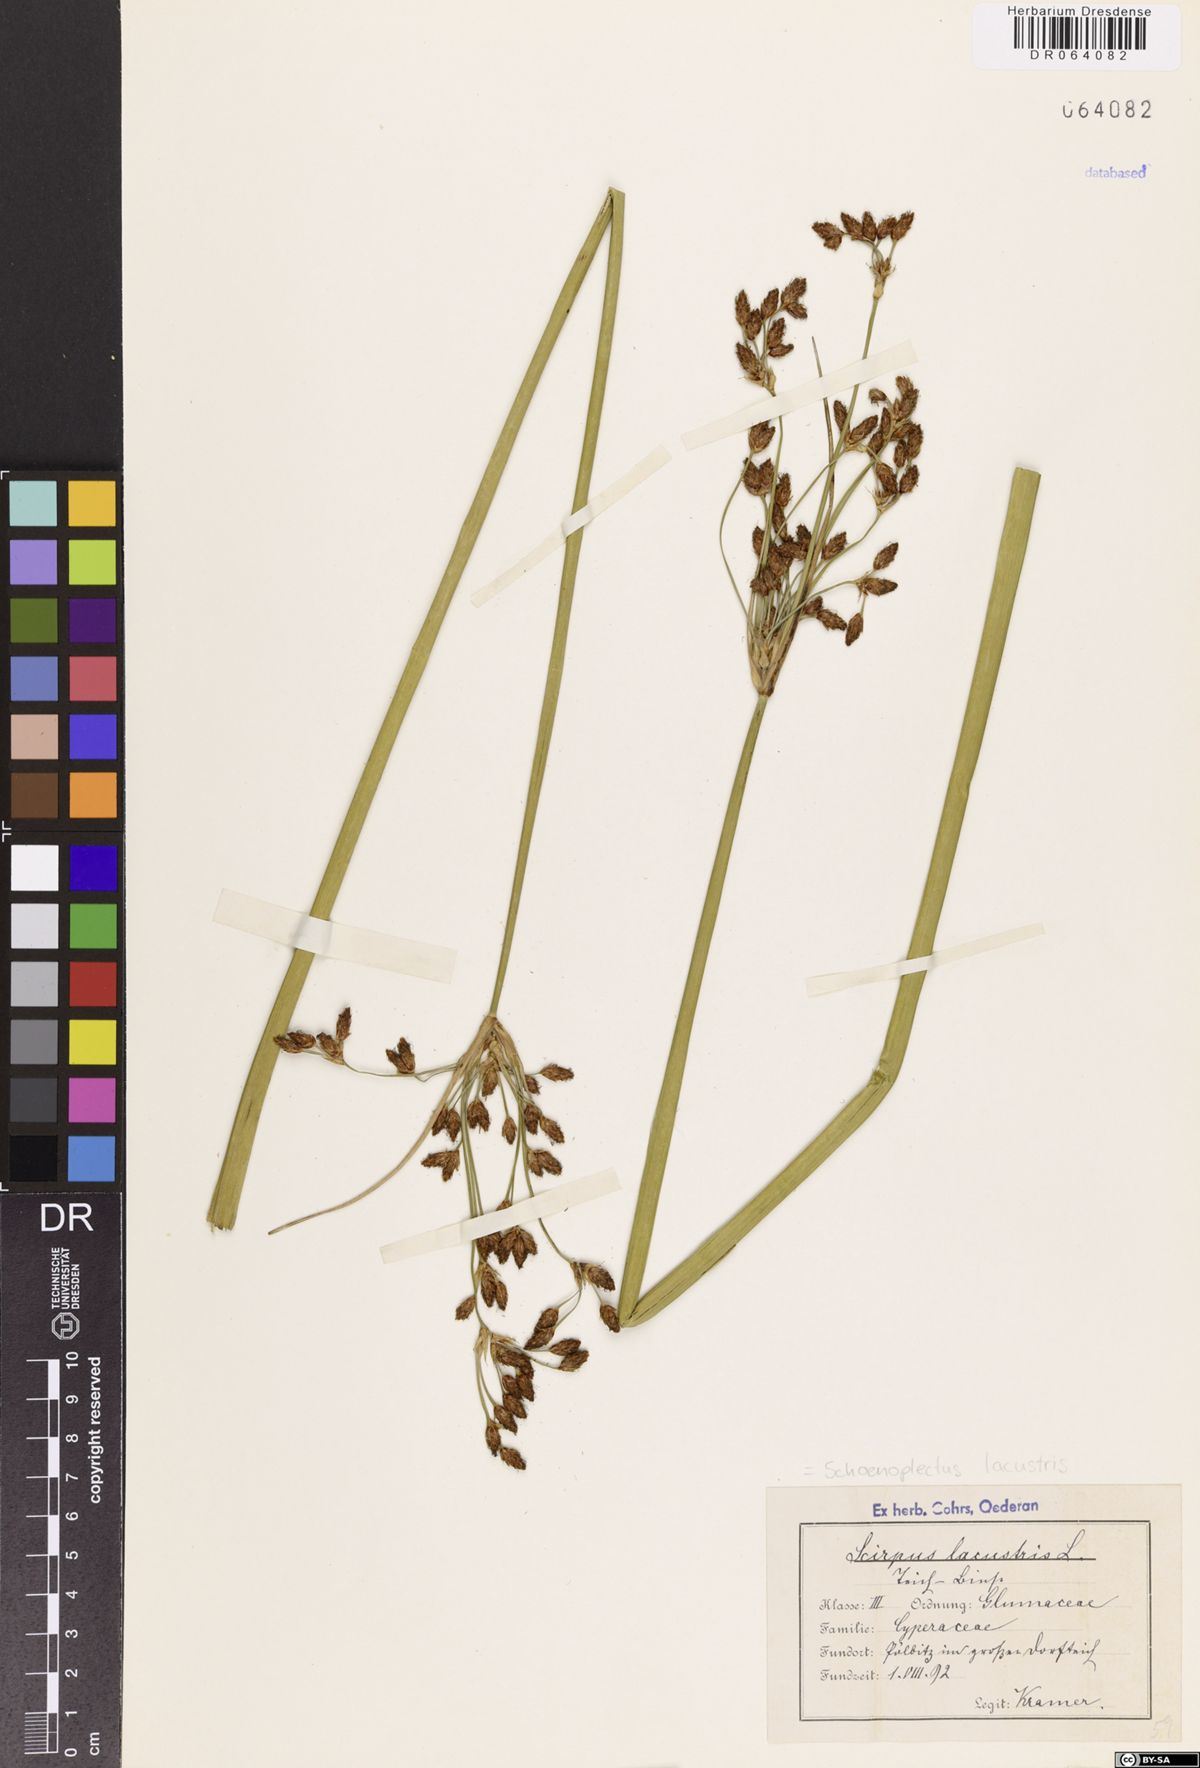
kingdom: Plantae
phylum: Tracheophyta
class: Liliopsida
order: Poales
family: Cyperaceae
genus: Schoenoplectus
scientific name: Schoenoplectus lacustris
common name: Common club-rush
